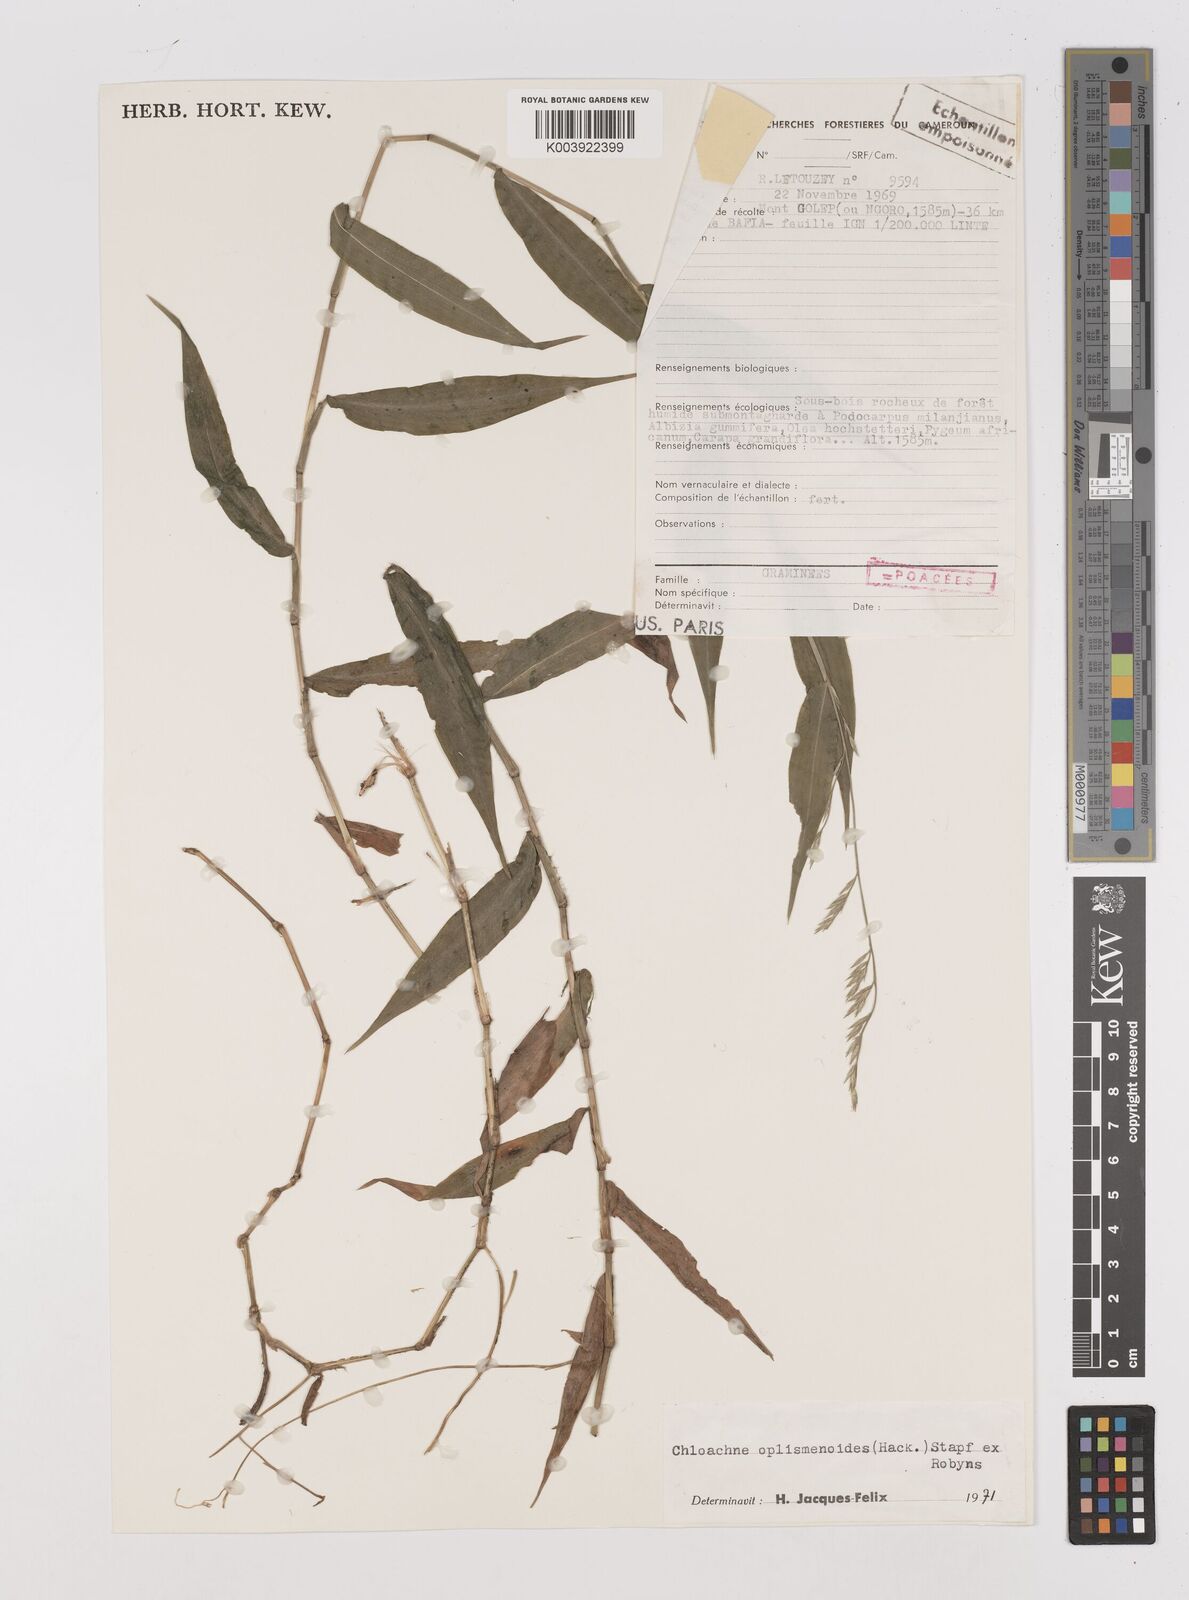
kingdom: Plantae
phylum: Tracheophyta
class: Liliopsida
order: Poales
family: Poaceae
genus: Poecilostachys
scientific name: Poecilostachys oplismenoides
